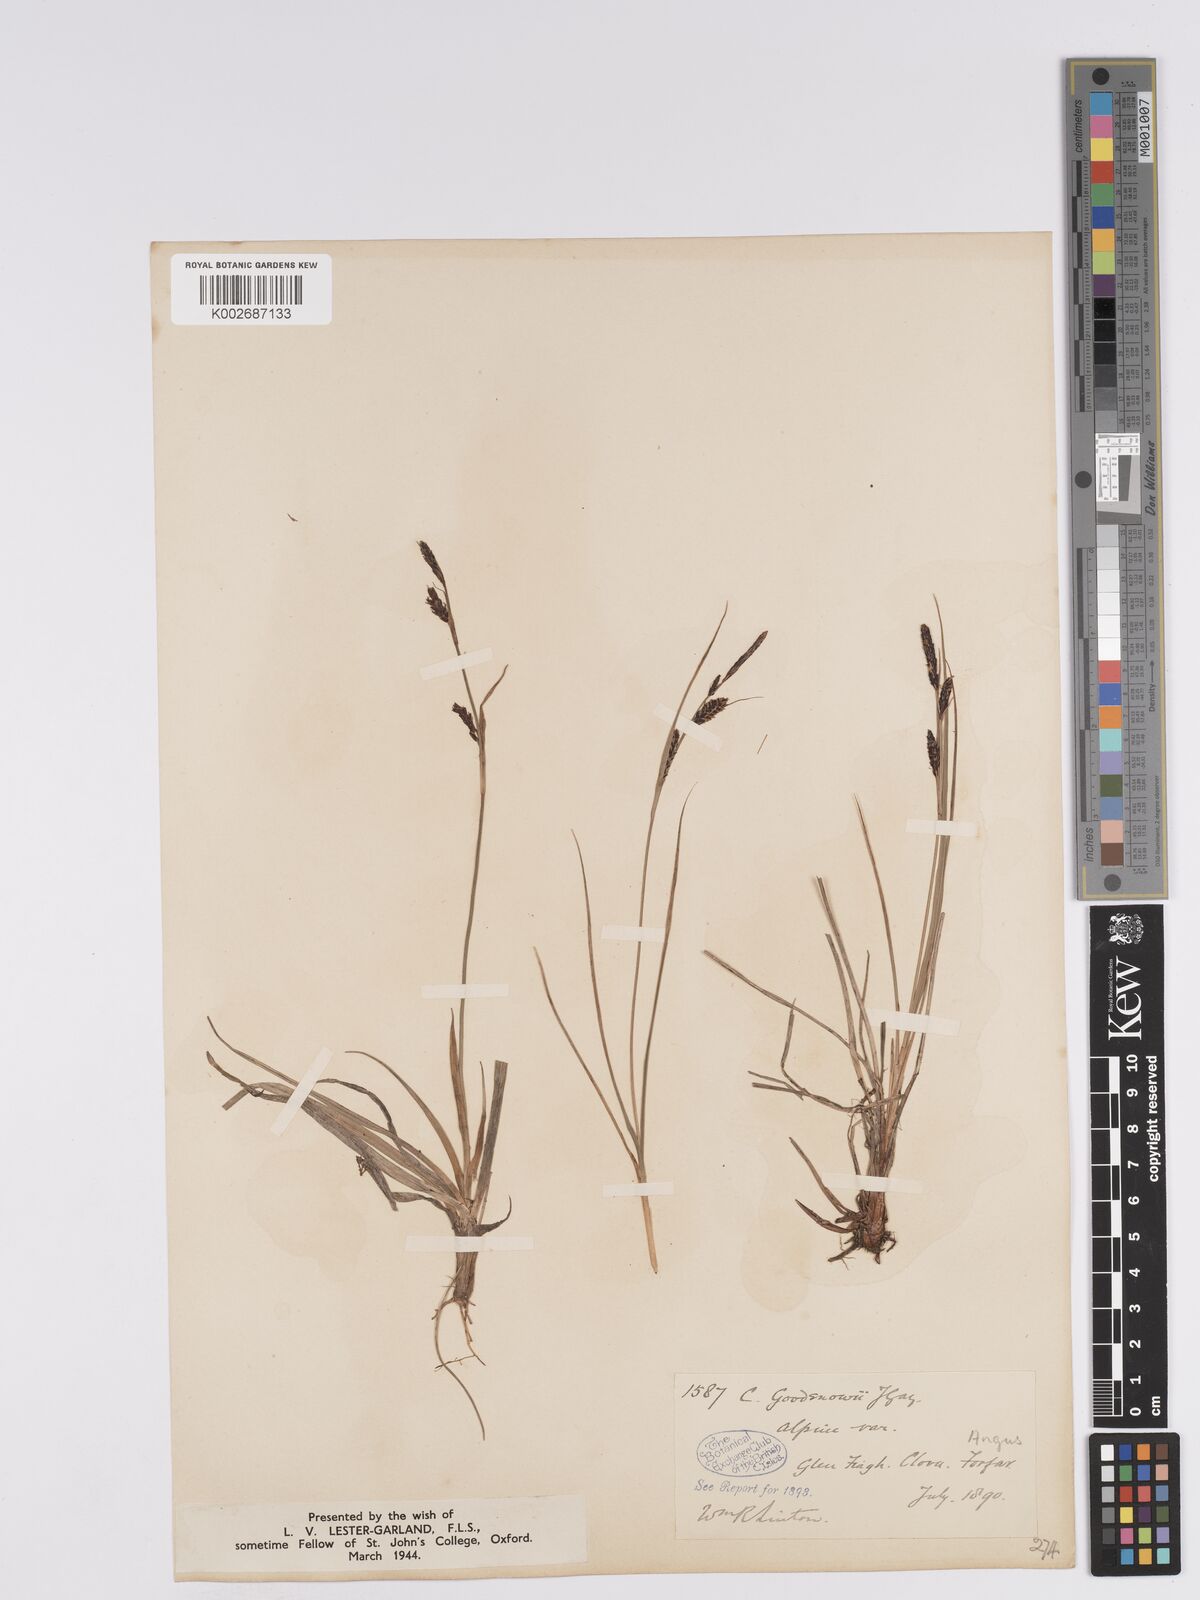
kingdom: Plantae
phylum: Tracheophyta
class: Liliopsida
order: Poales
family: Cyperaceae
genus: Carex
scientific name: Carex nigra
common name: Common sedge
